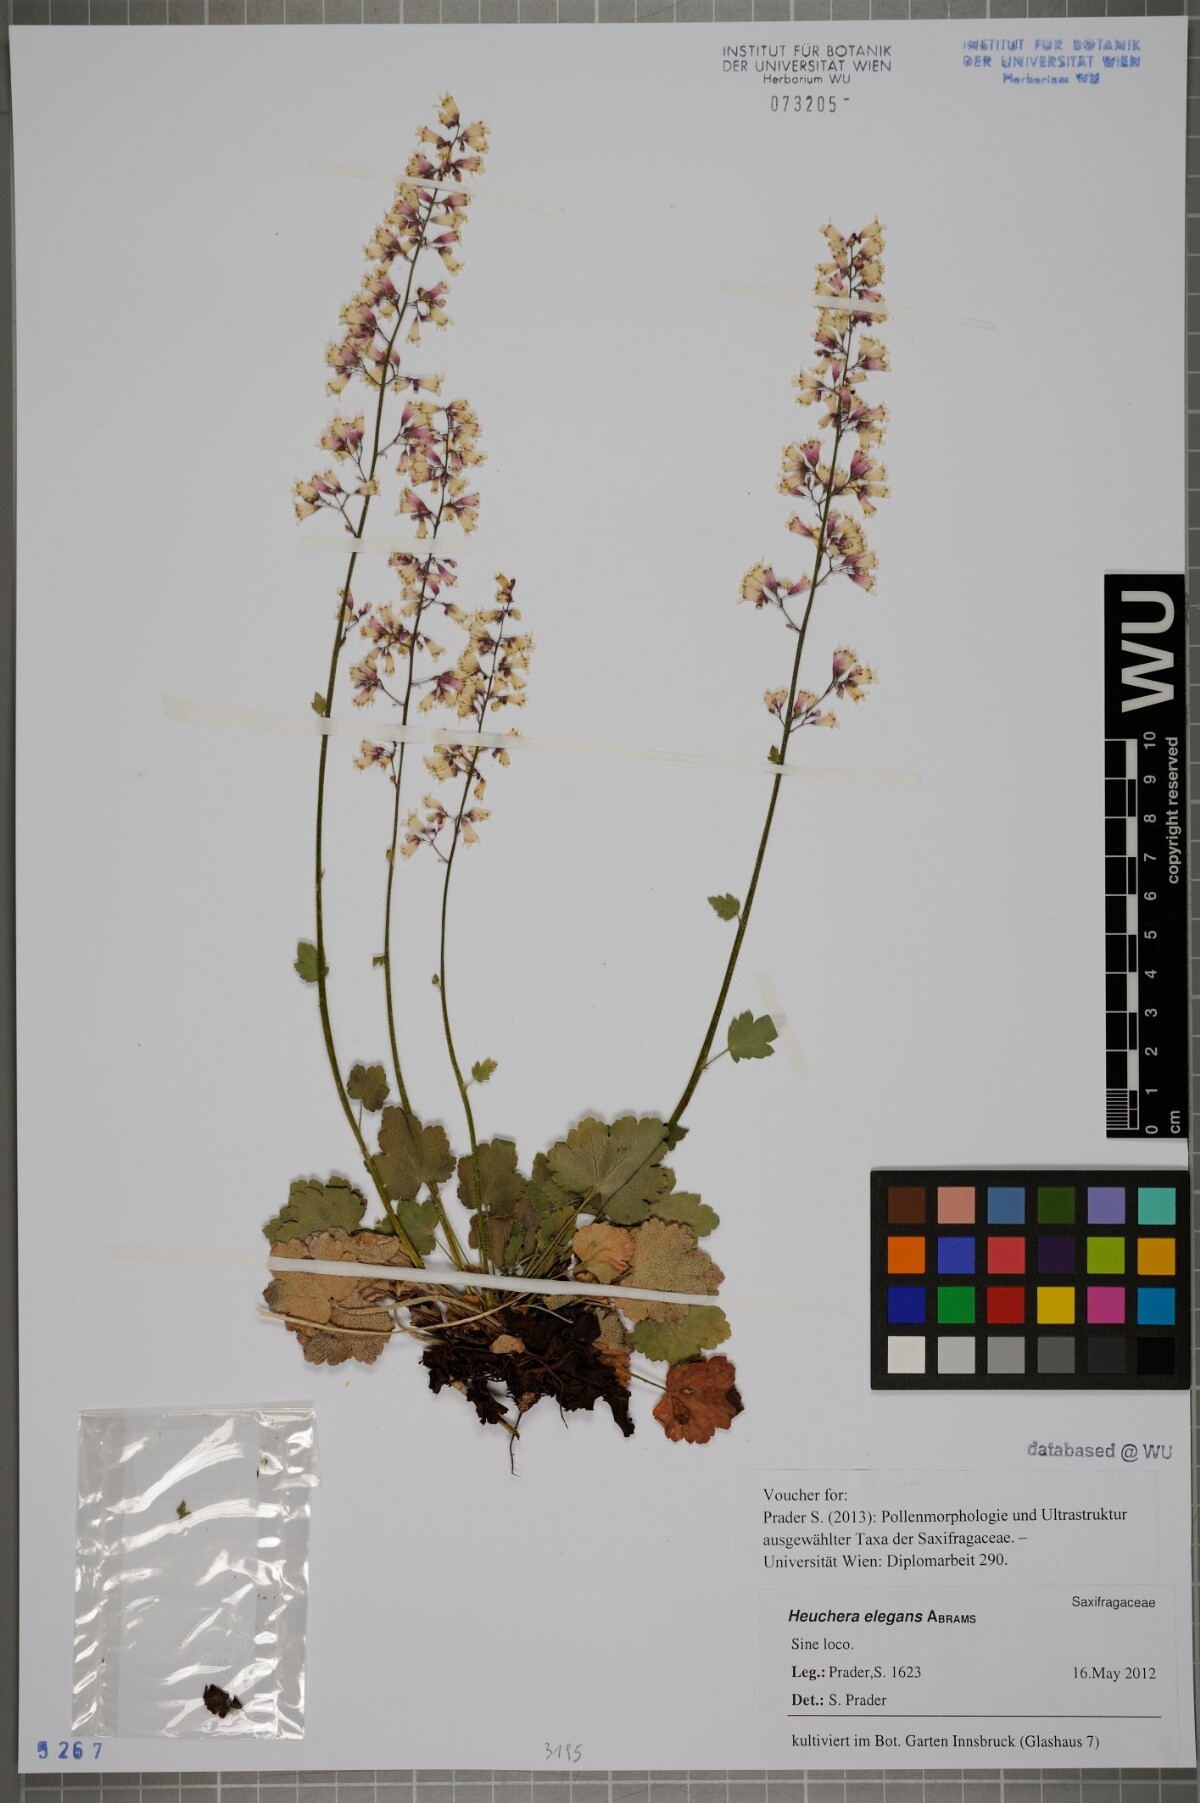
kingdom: Plantae
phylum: Tracheophyta
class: Magnoliopsida
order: Saxifragales
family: Saxifragaceae
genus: Heuchera
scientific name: Heuchera elegans
